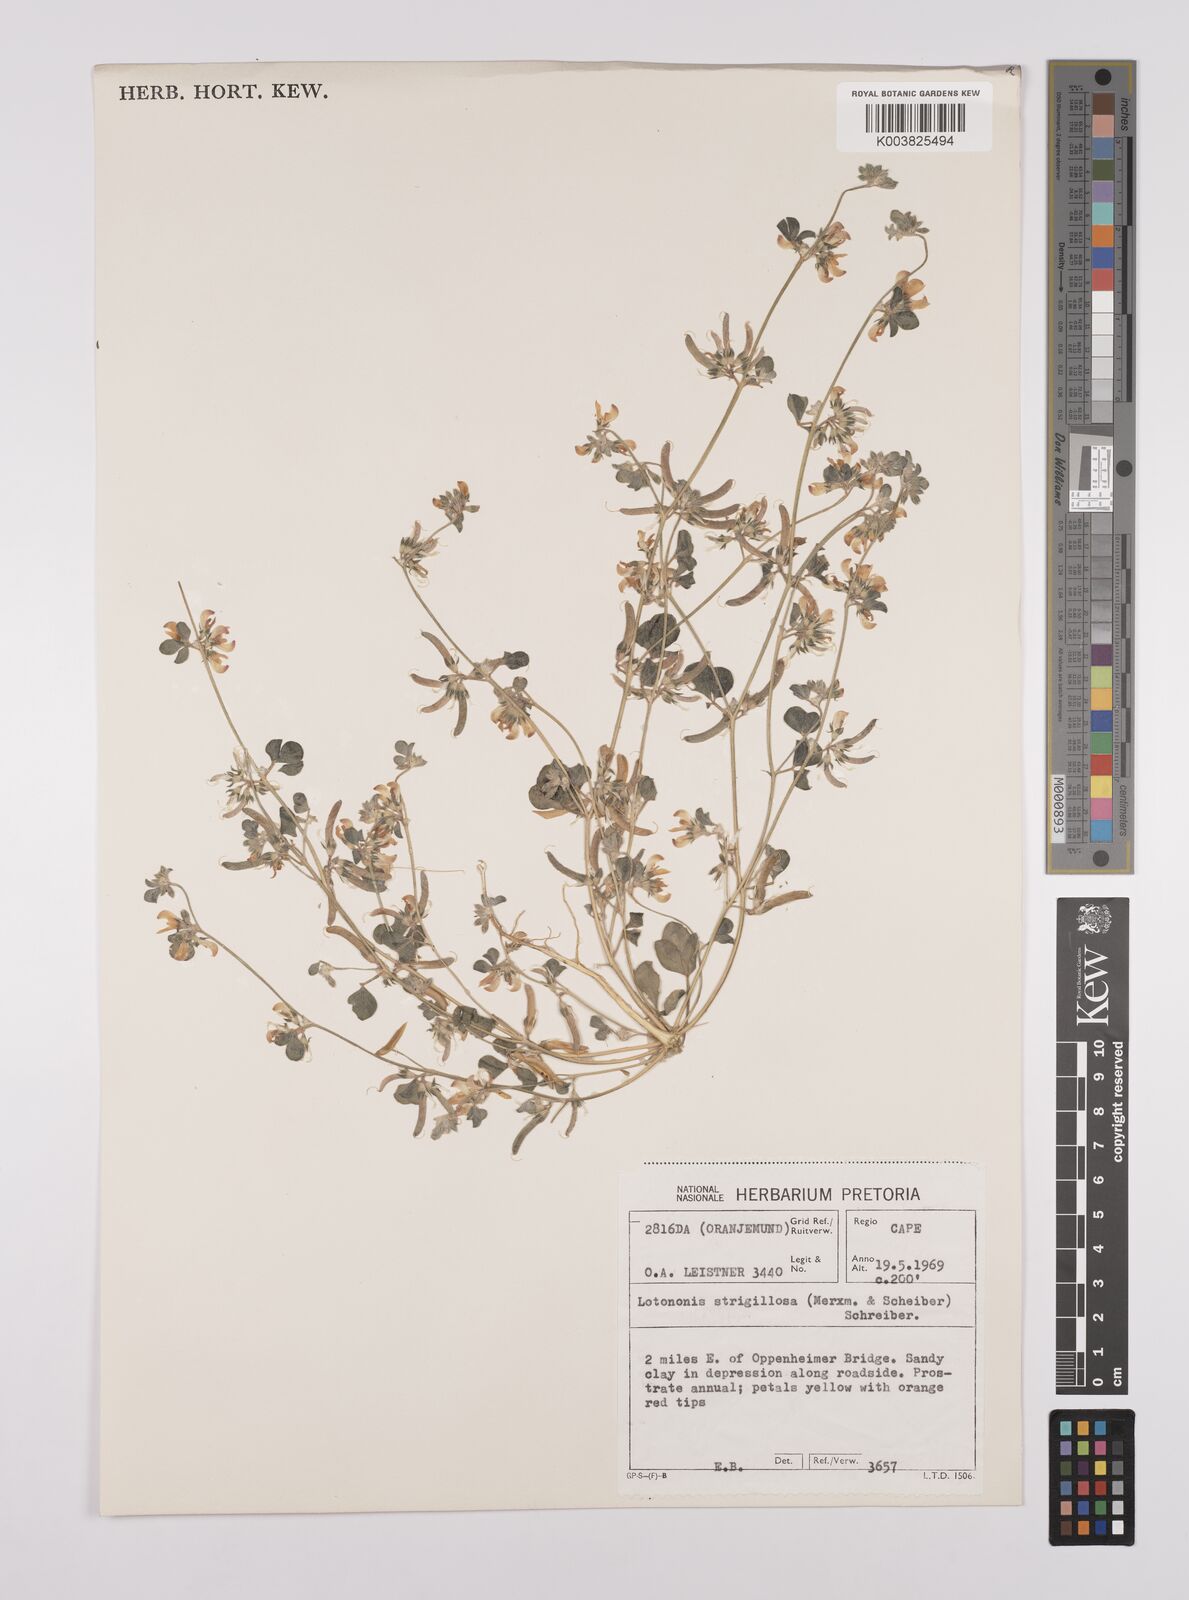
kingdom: Plantae
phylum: Tracheophyta
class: Magnoliopsida
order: Fabales
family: Fabaceae
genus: Lotononis
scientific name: Lotononis strigillosa
